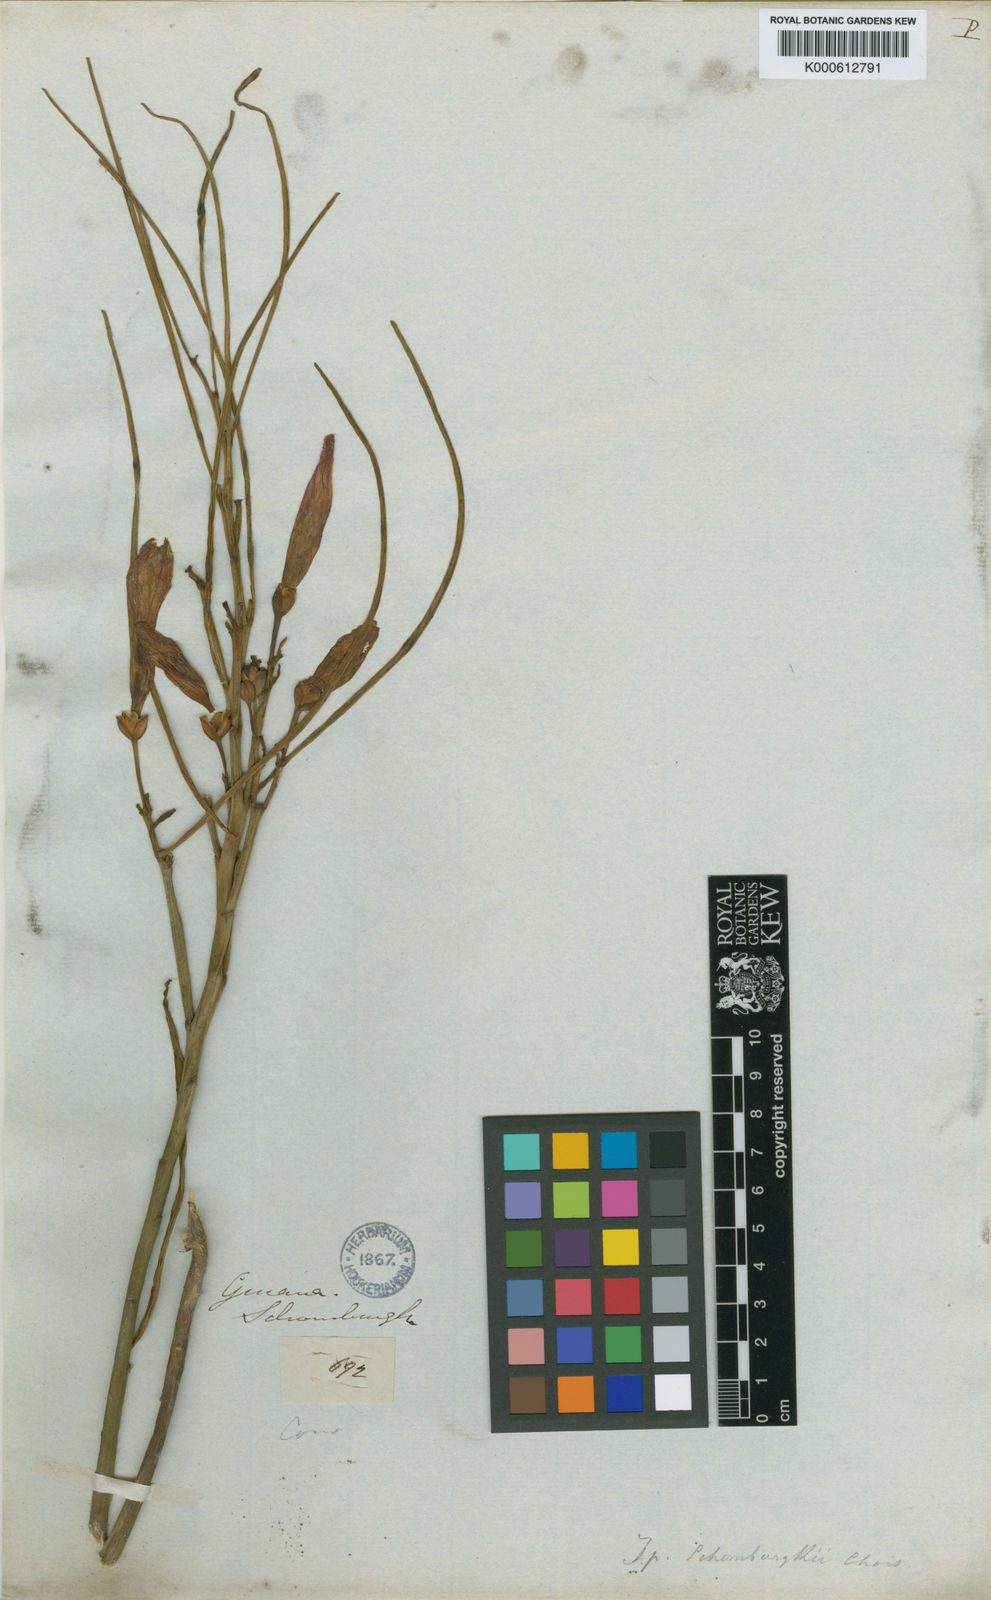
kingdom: Plantae
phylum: Tracheophyta
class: Magnoliopsida
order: Solanales
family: Convolvulaceae
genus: Ipomoea
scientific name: Ipomoea schomburgkii
